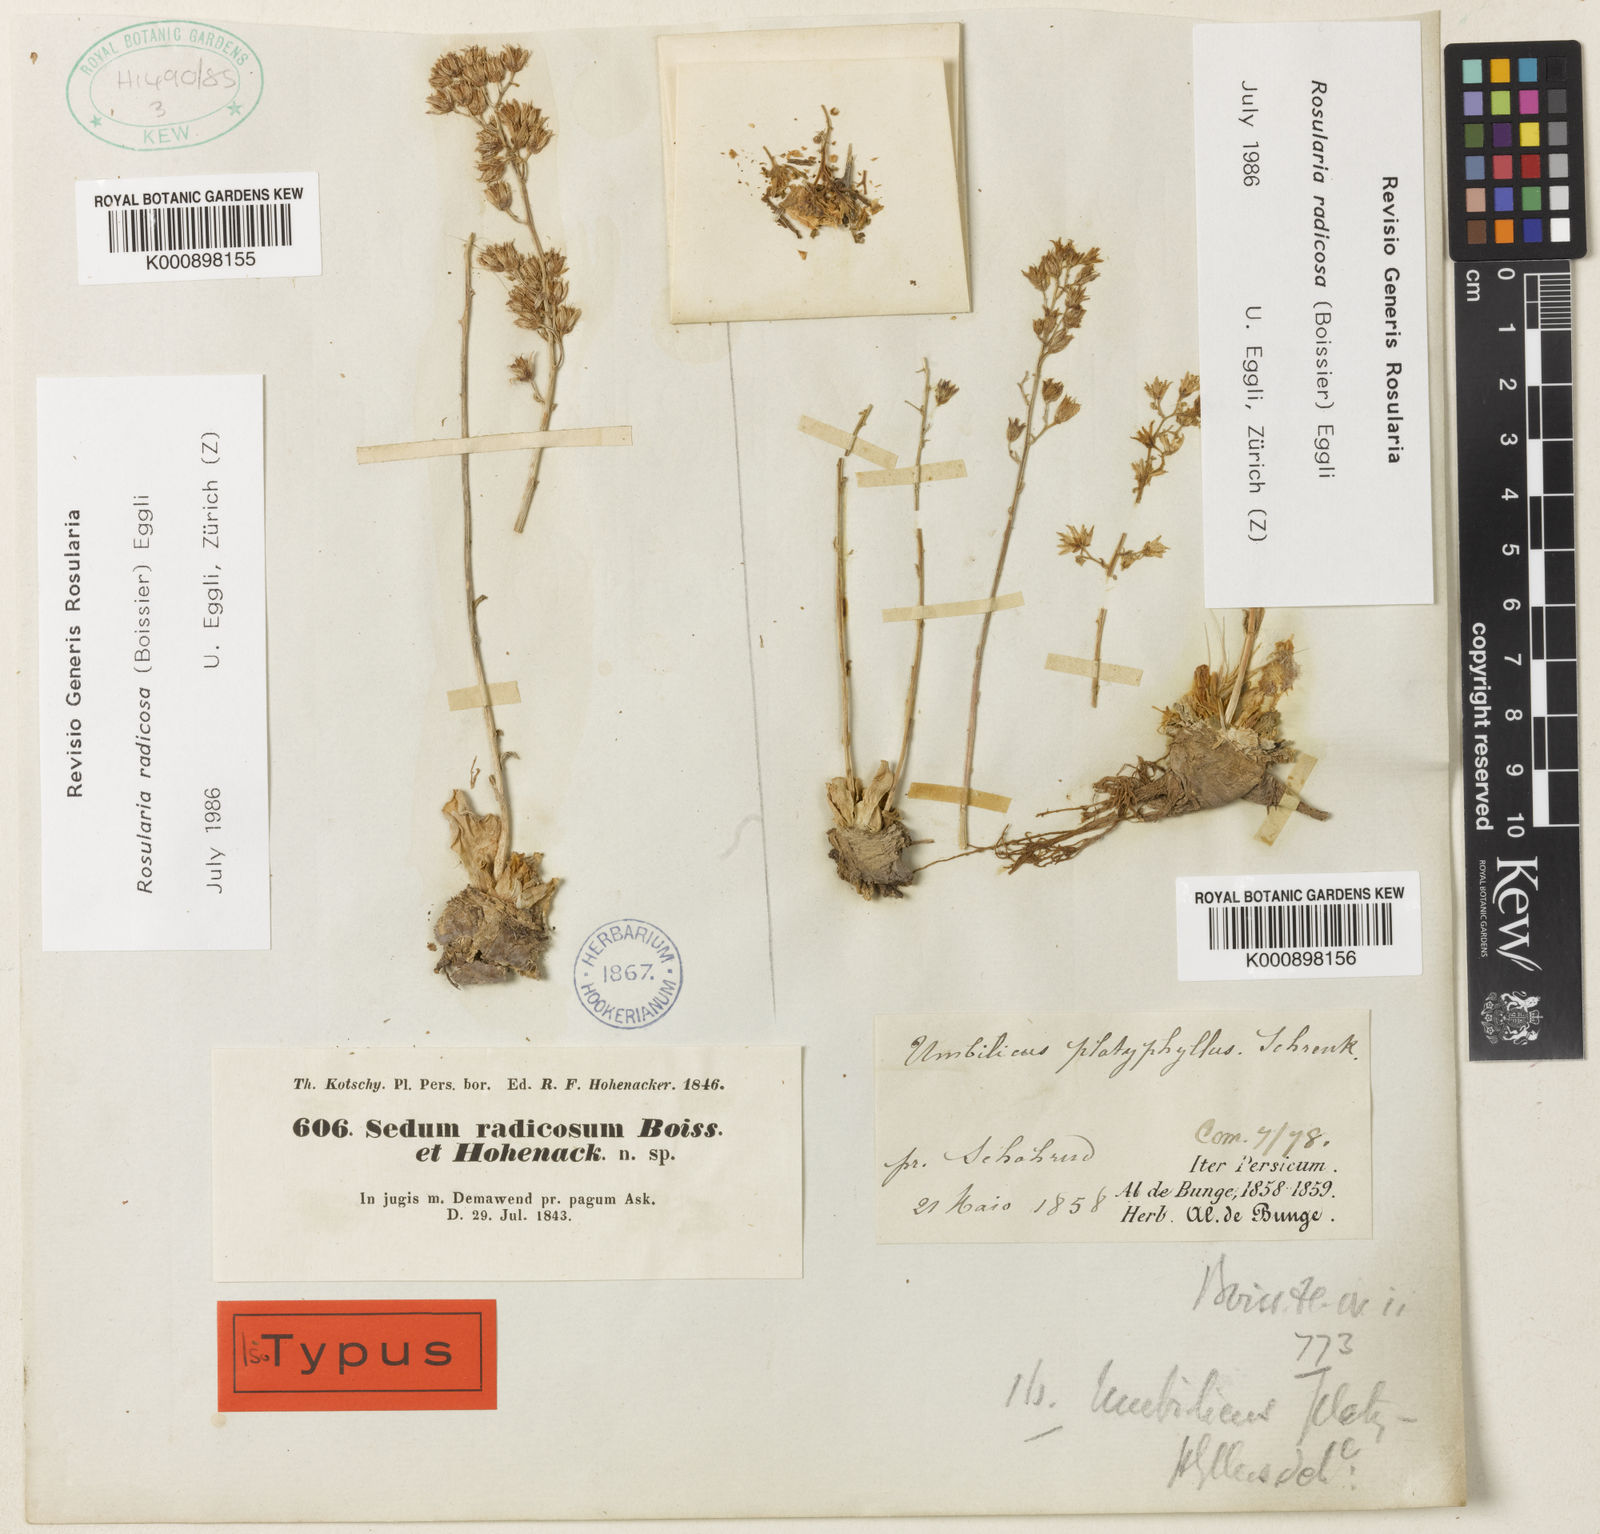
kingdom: Plantae
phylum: Tracheophyta
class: Magnoliopsida
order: Saxifragales
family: Crassulaceae
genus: Rosularia
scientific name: Rosularia radicosa
